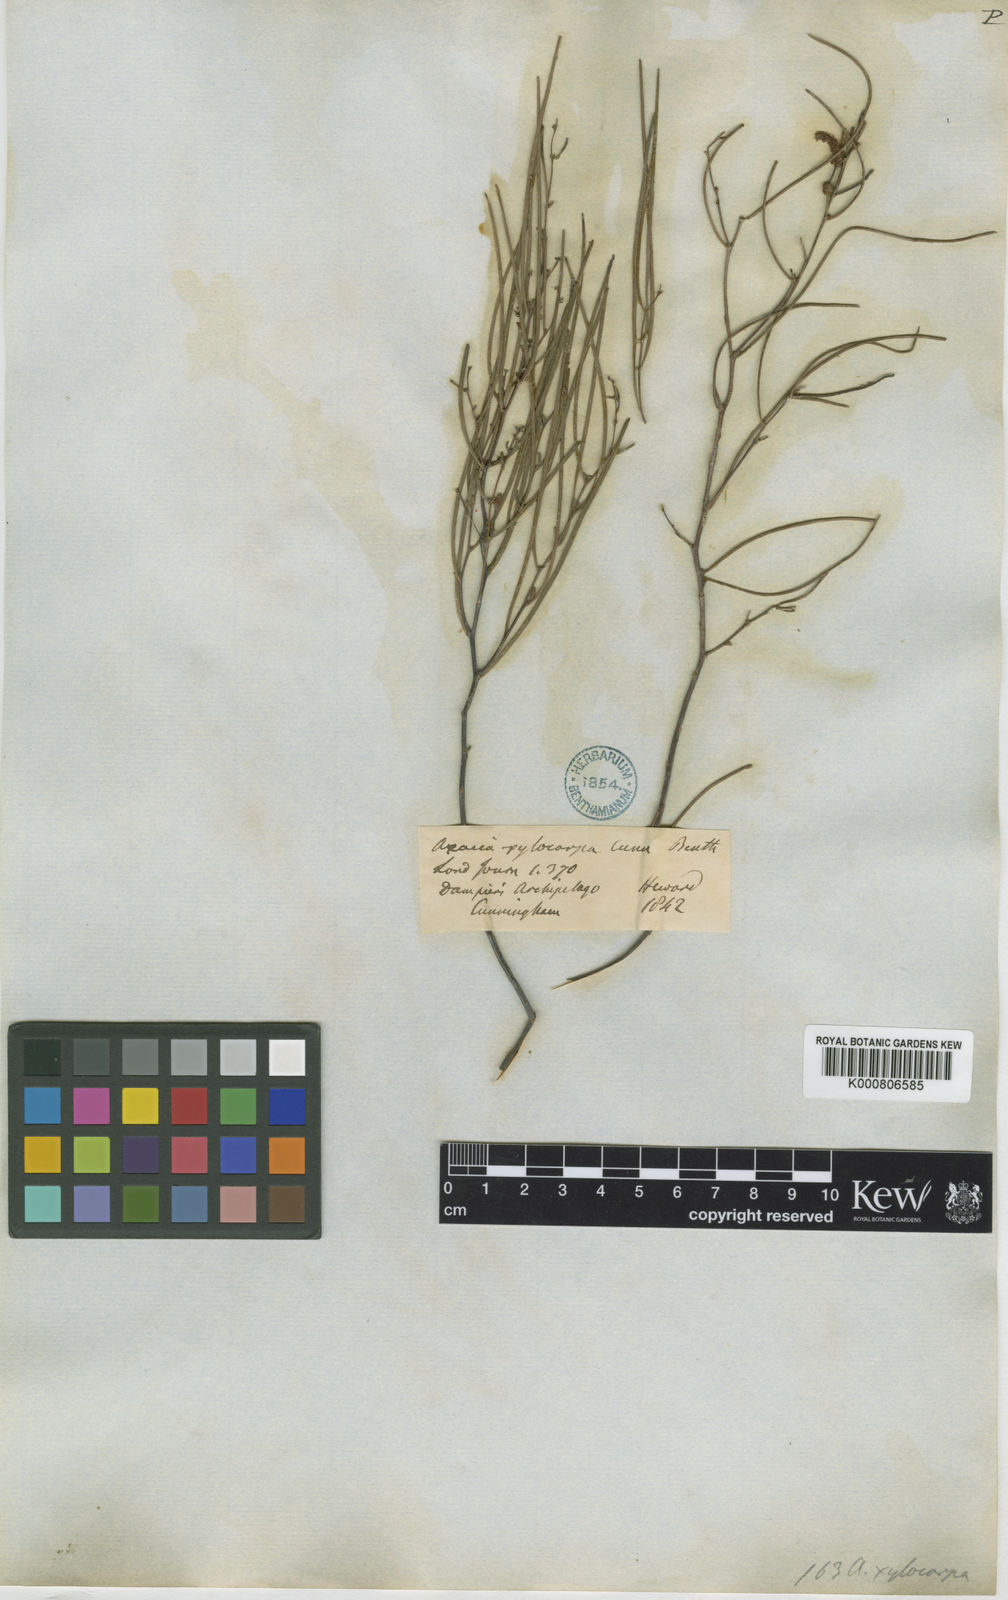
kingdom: Plantae
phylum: Tracheophyta
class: Magnoliopsida
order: Fabales
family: Fabaceae
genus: Acacia
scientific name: Acacia
